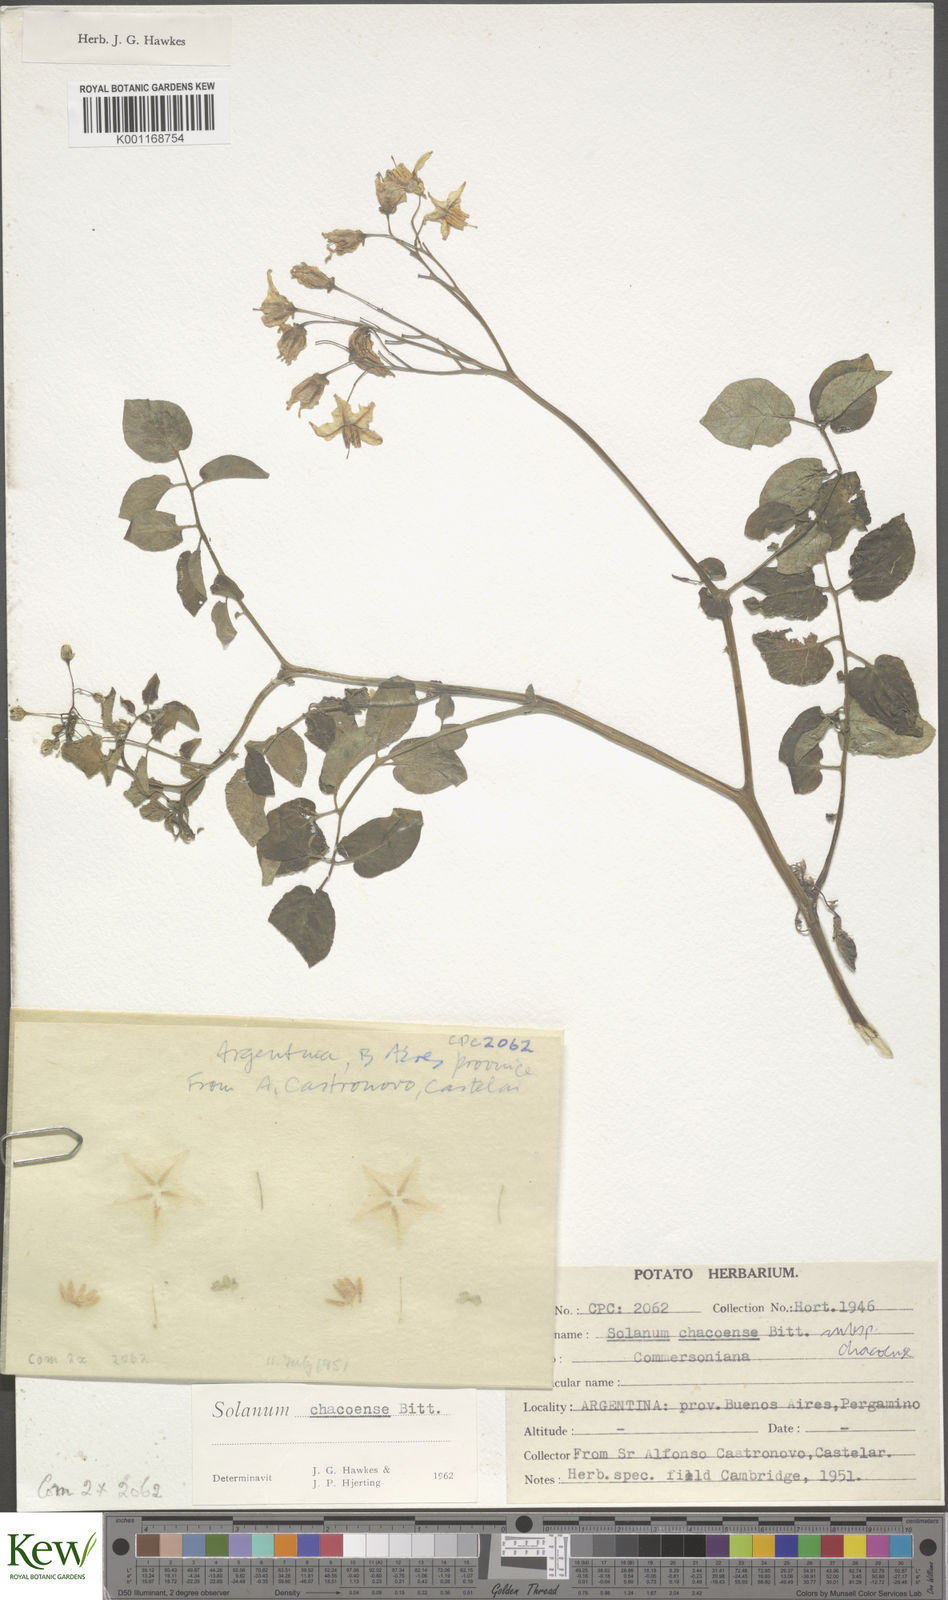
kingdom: Plantae
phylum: Tracheophyta
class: Magnoliopsida
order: Solanales
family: Solanaceae
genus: Solanum
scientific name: Solanum chacoense
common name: Chaco potato
